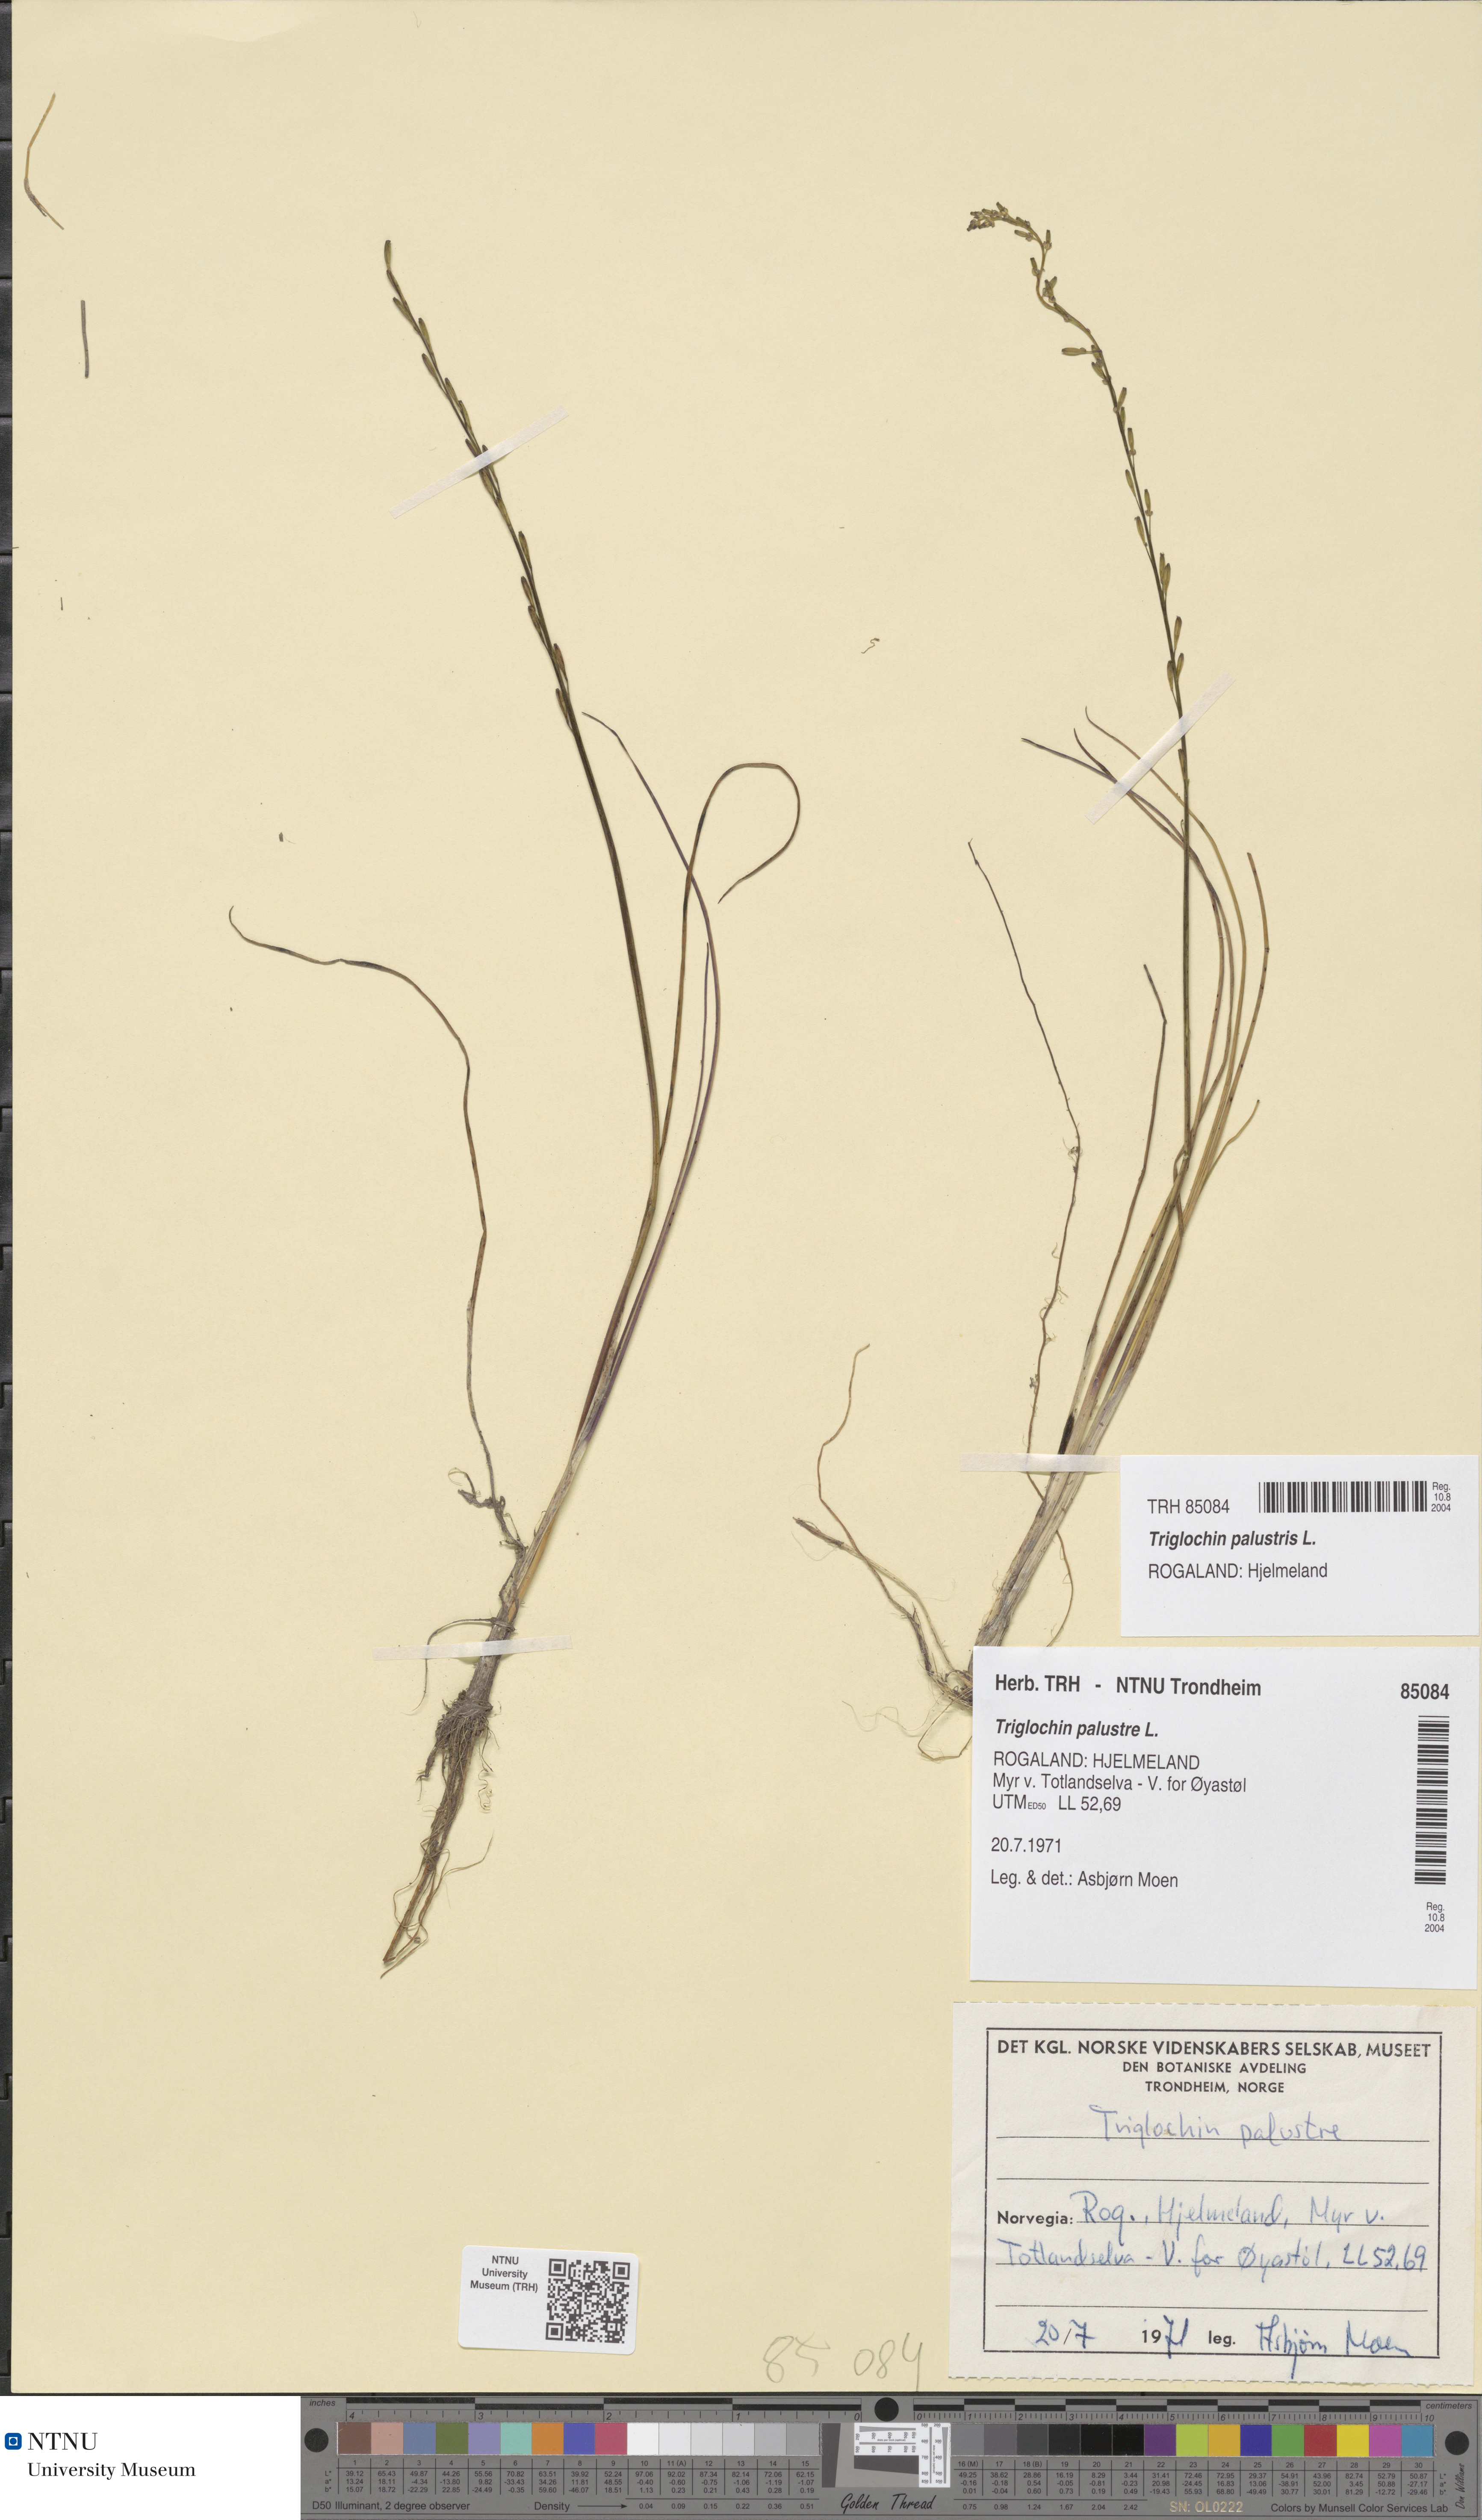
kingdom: Plantae
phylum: Tracheophyta
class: Liliopsida
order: Alismatales
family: Juncaginaceae
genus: Triglochin
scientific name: Triglochin palustris
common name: Marsh arrowgrass
